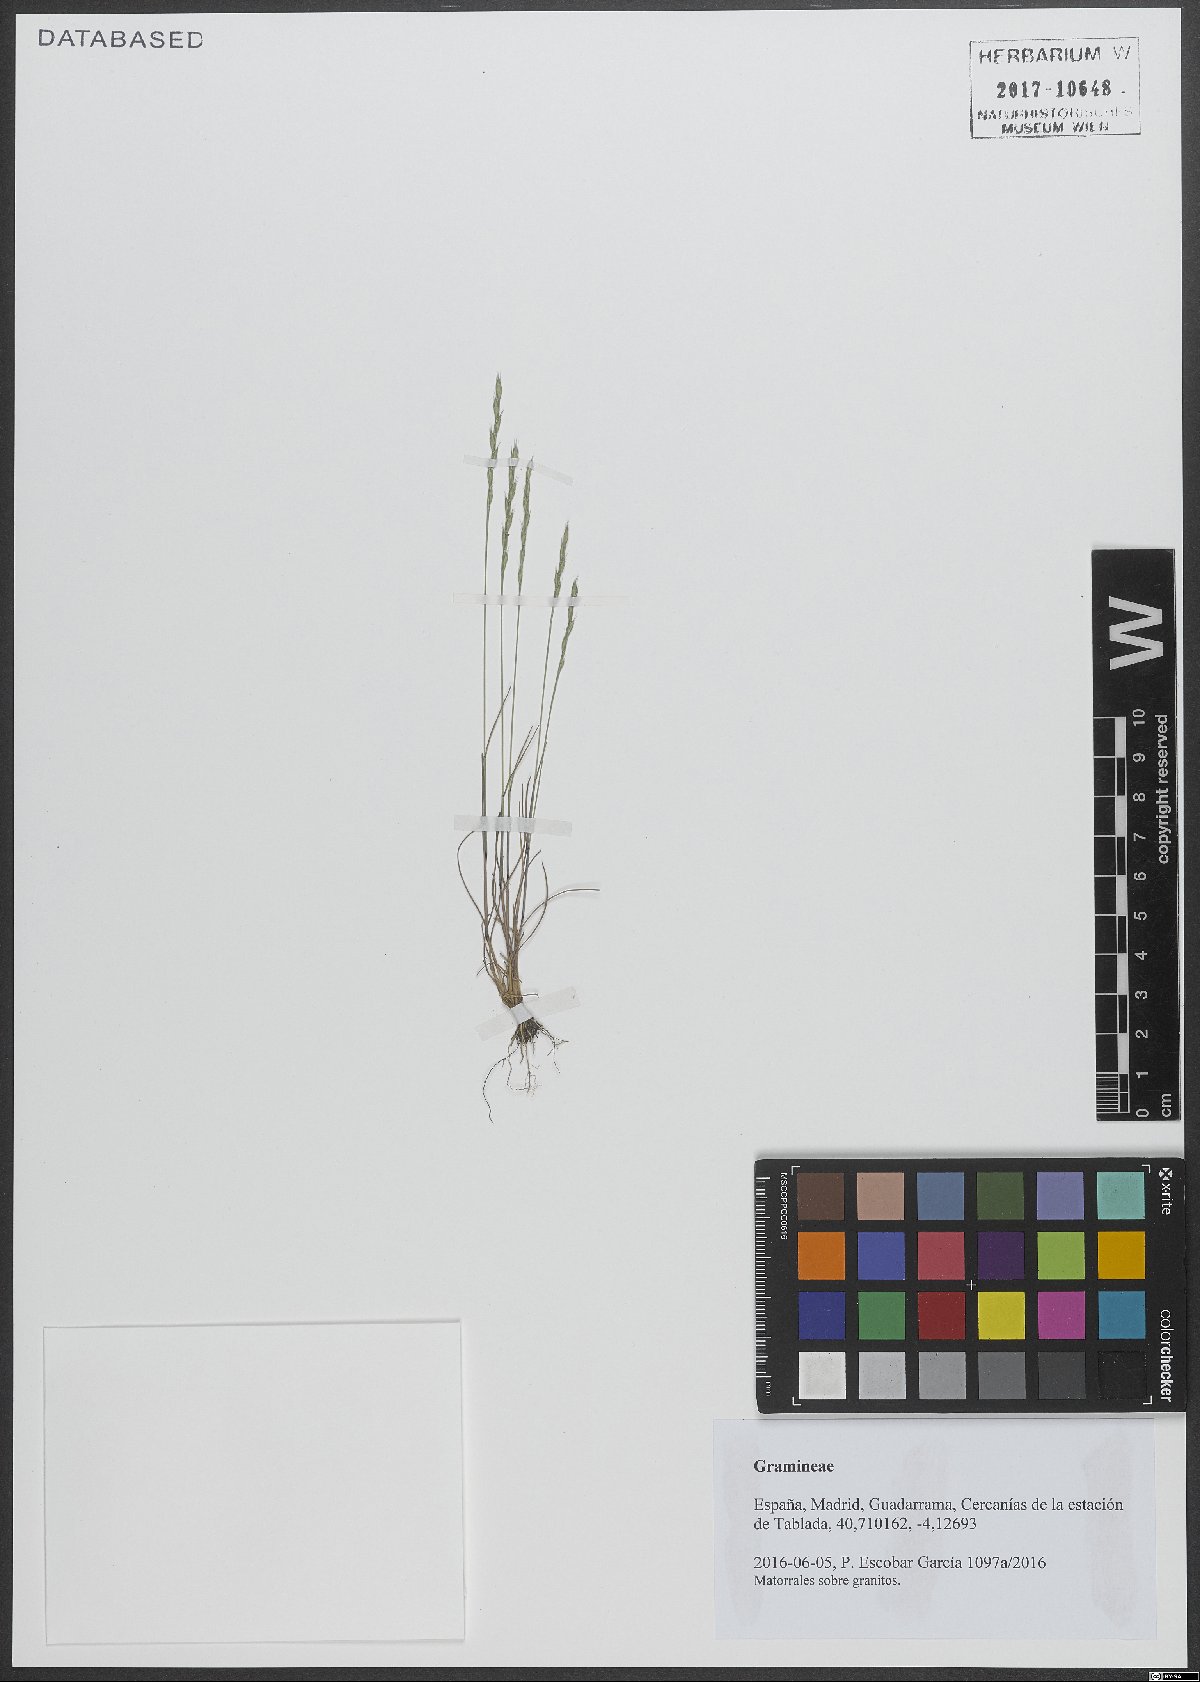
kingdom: Plantae
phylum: Tracheophyta
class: Liliopsida
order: Poales
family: Poaceae
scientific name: Poaceae
